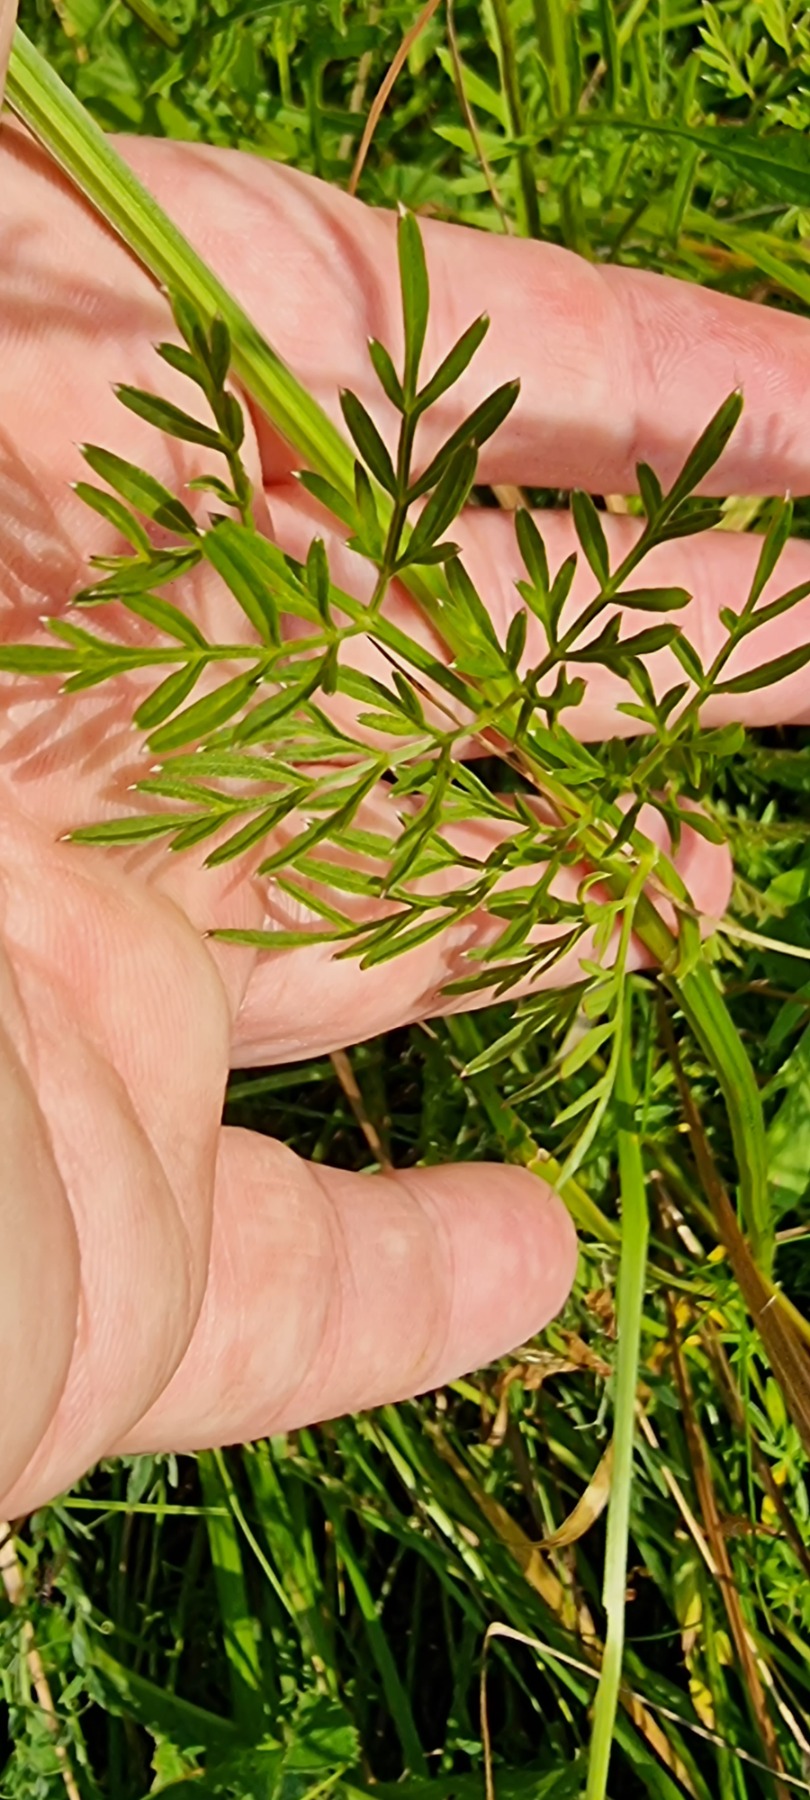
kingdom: Plantae
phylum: Tracheophyta
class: Magnoliopsida
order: Apiales
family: Apiaceae
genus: Selinum
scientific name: Selinum carvifolia
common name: Seline
